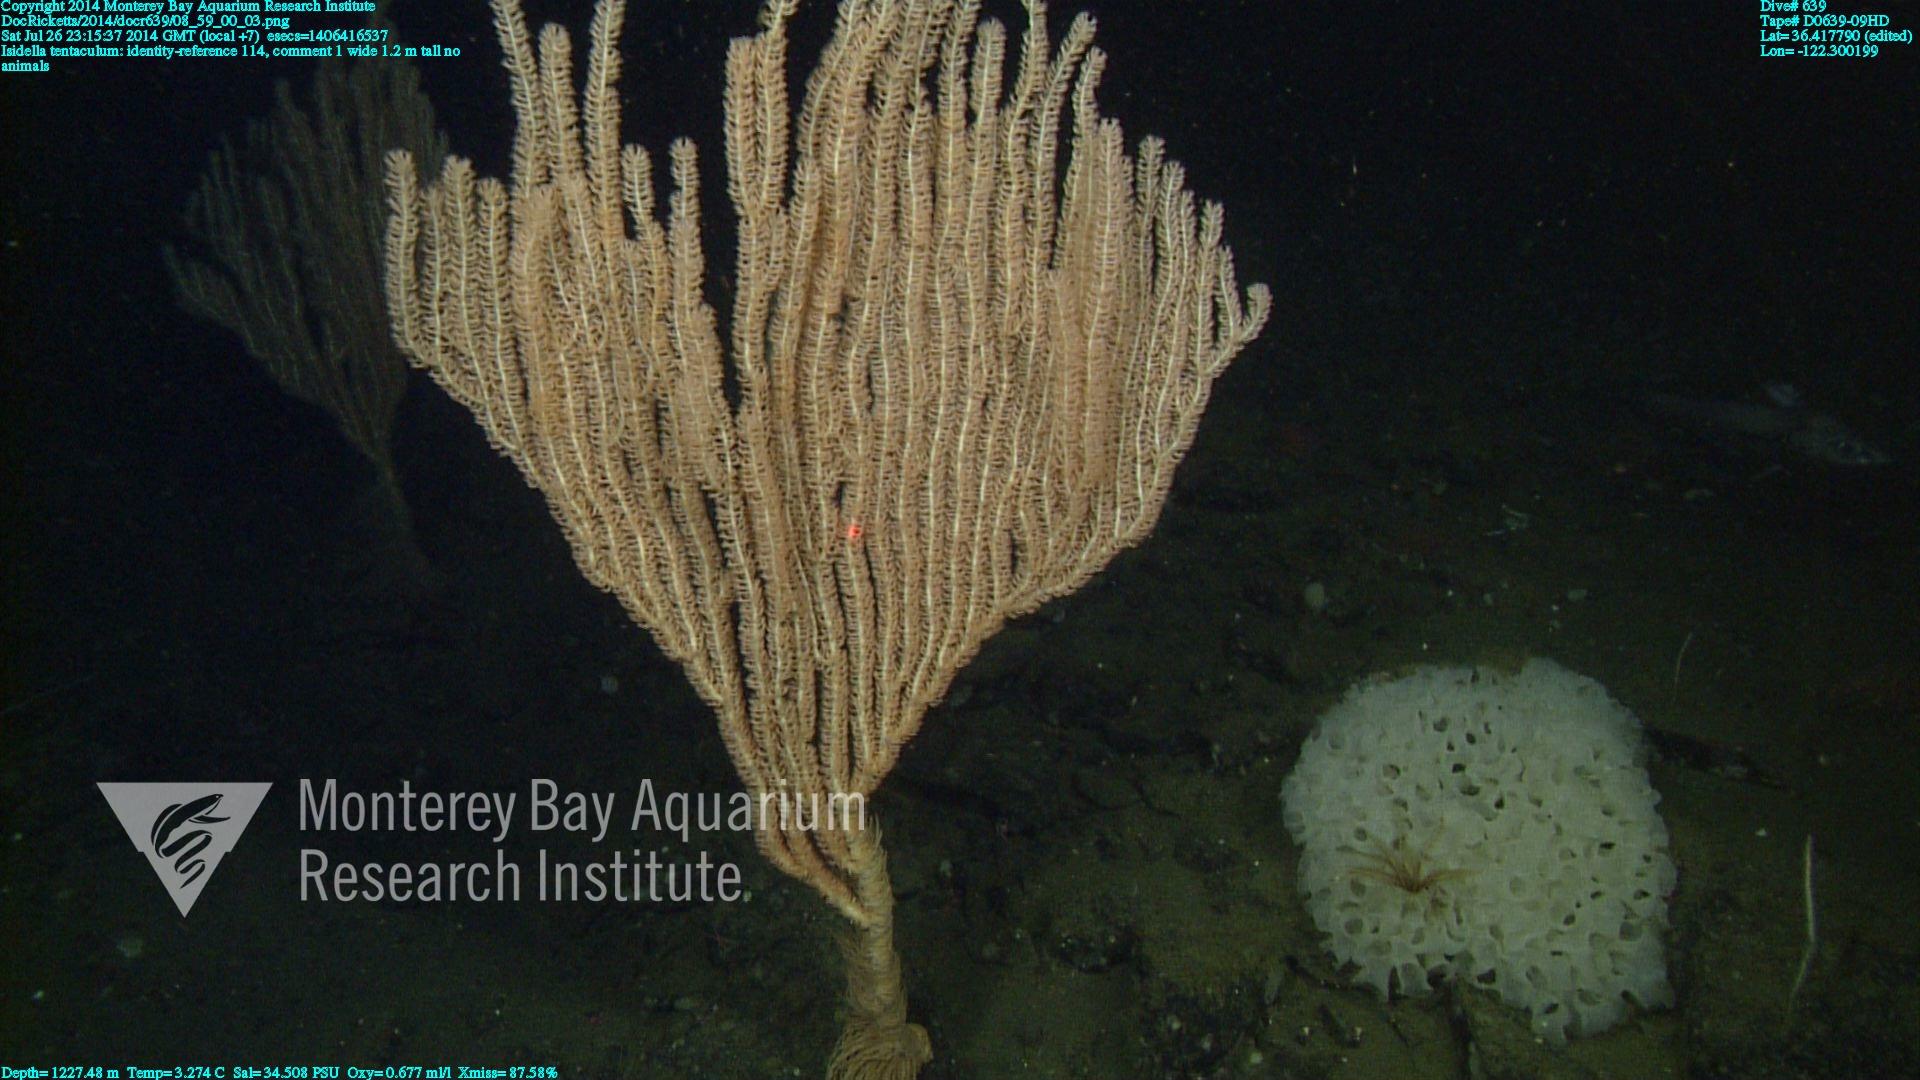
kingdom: Animalia
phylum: Cnidaria
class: Anthozoa
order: Scleralcyonacea
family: Keratoisididae
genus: Isidella
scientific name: Isidella tentaculum
